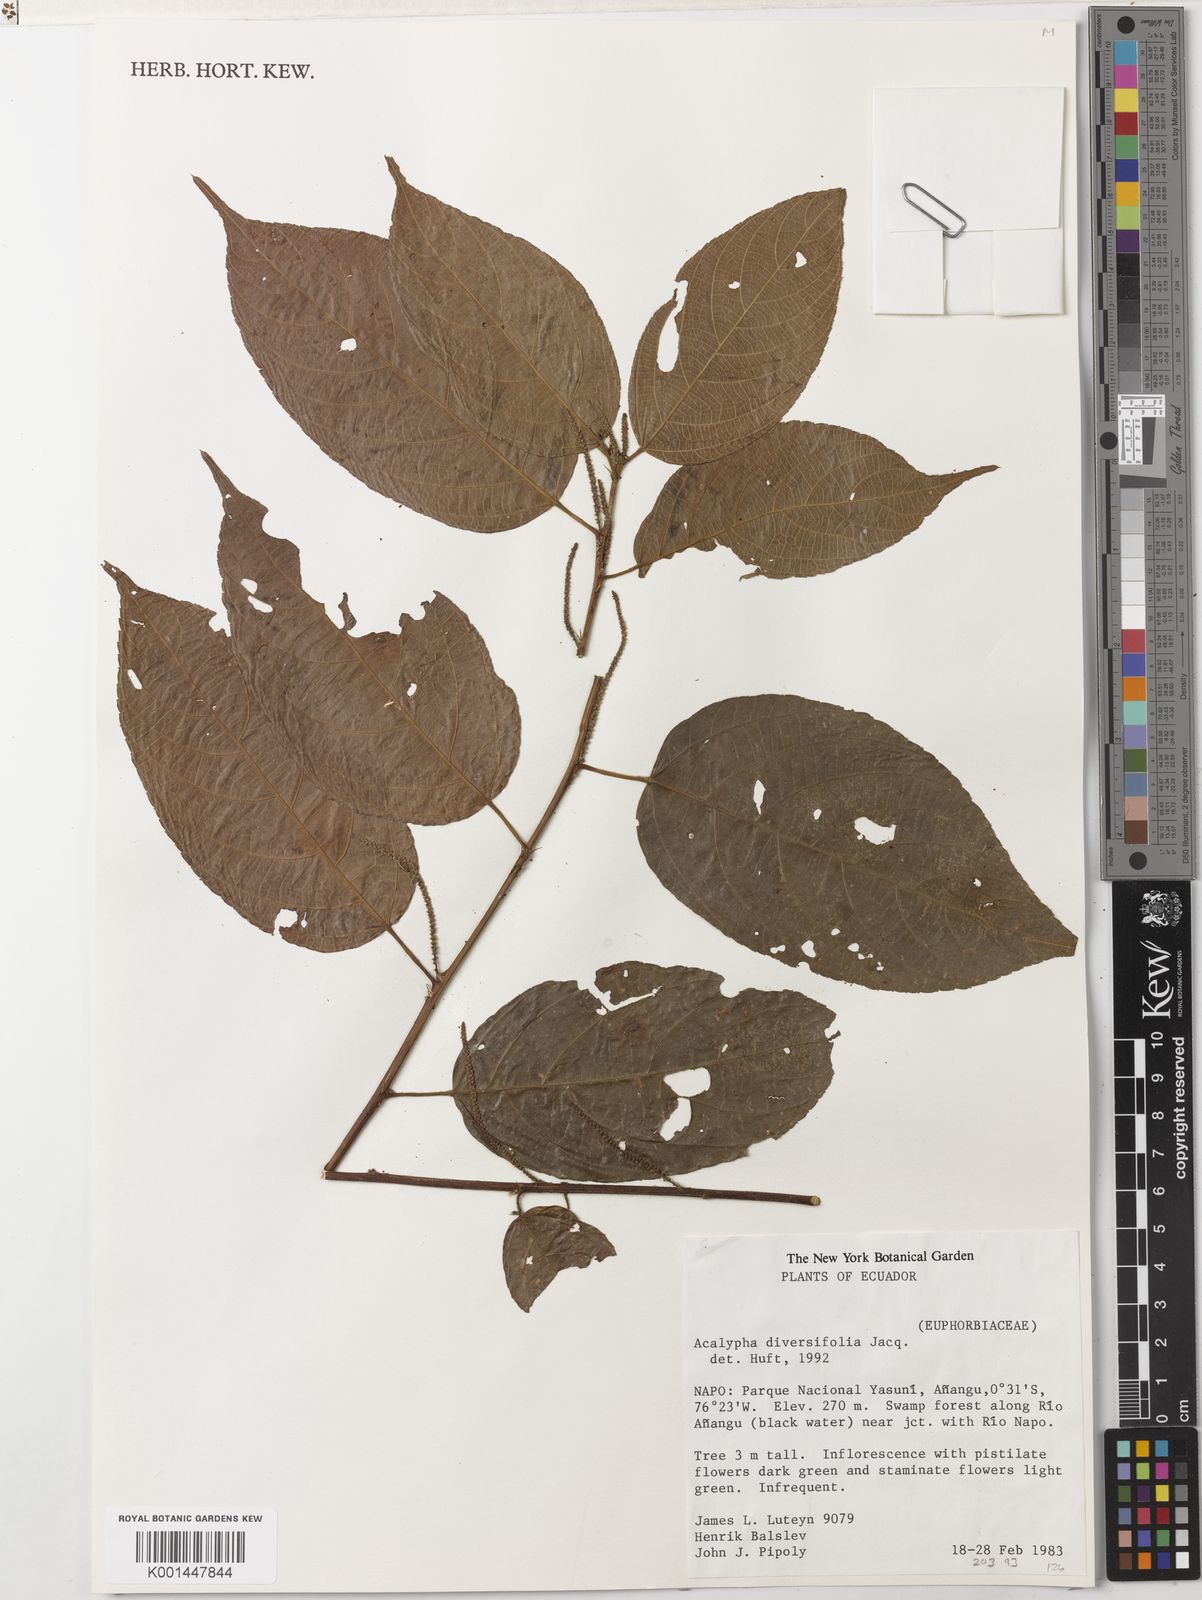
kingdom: Plantae
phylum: Tracheophyta
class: Magnoliopsida
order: Malpighiales
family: Euphorbiaceae
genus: Acalypha
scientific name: Acalypha diversifolia
